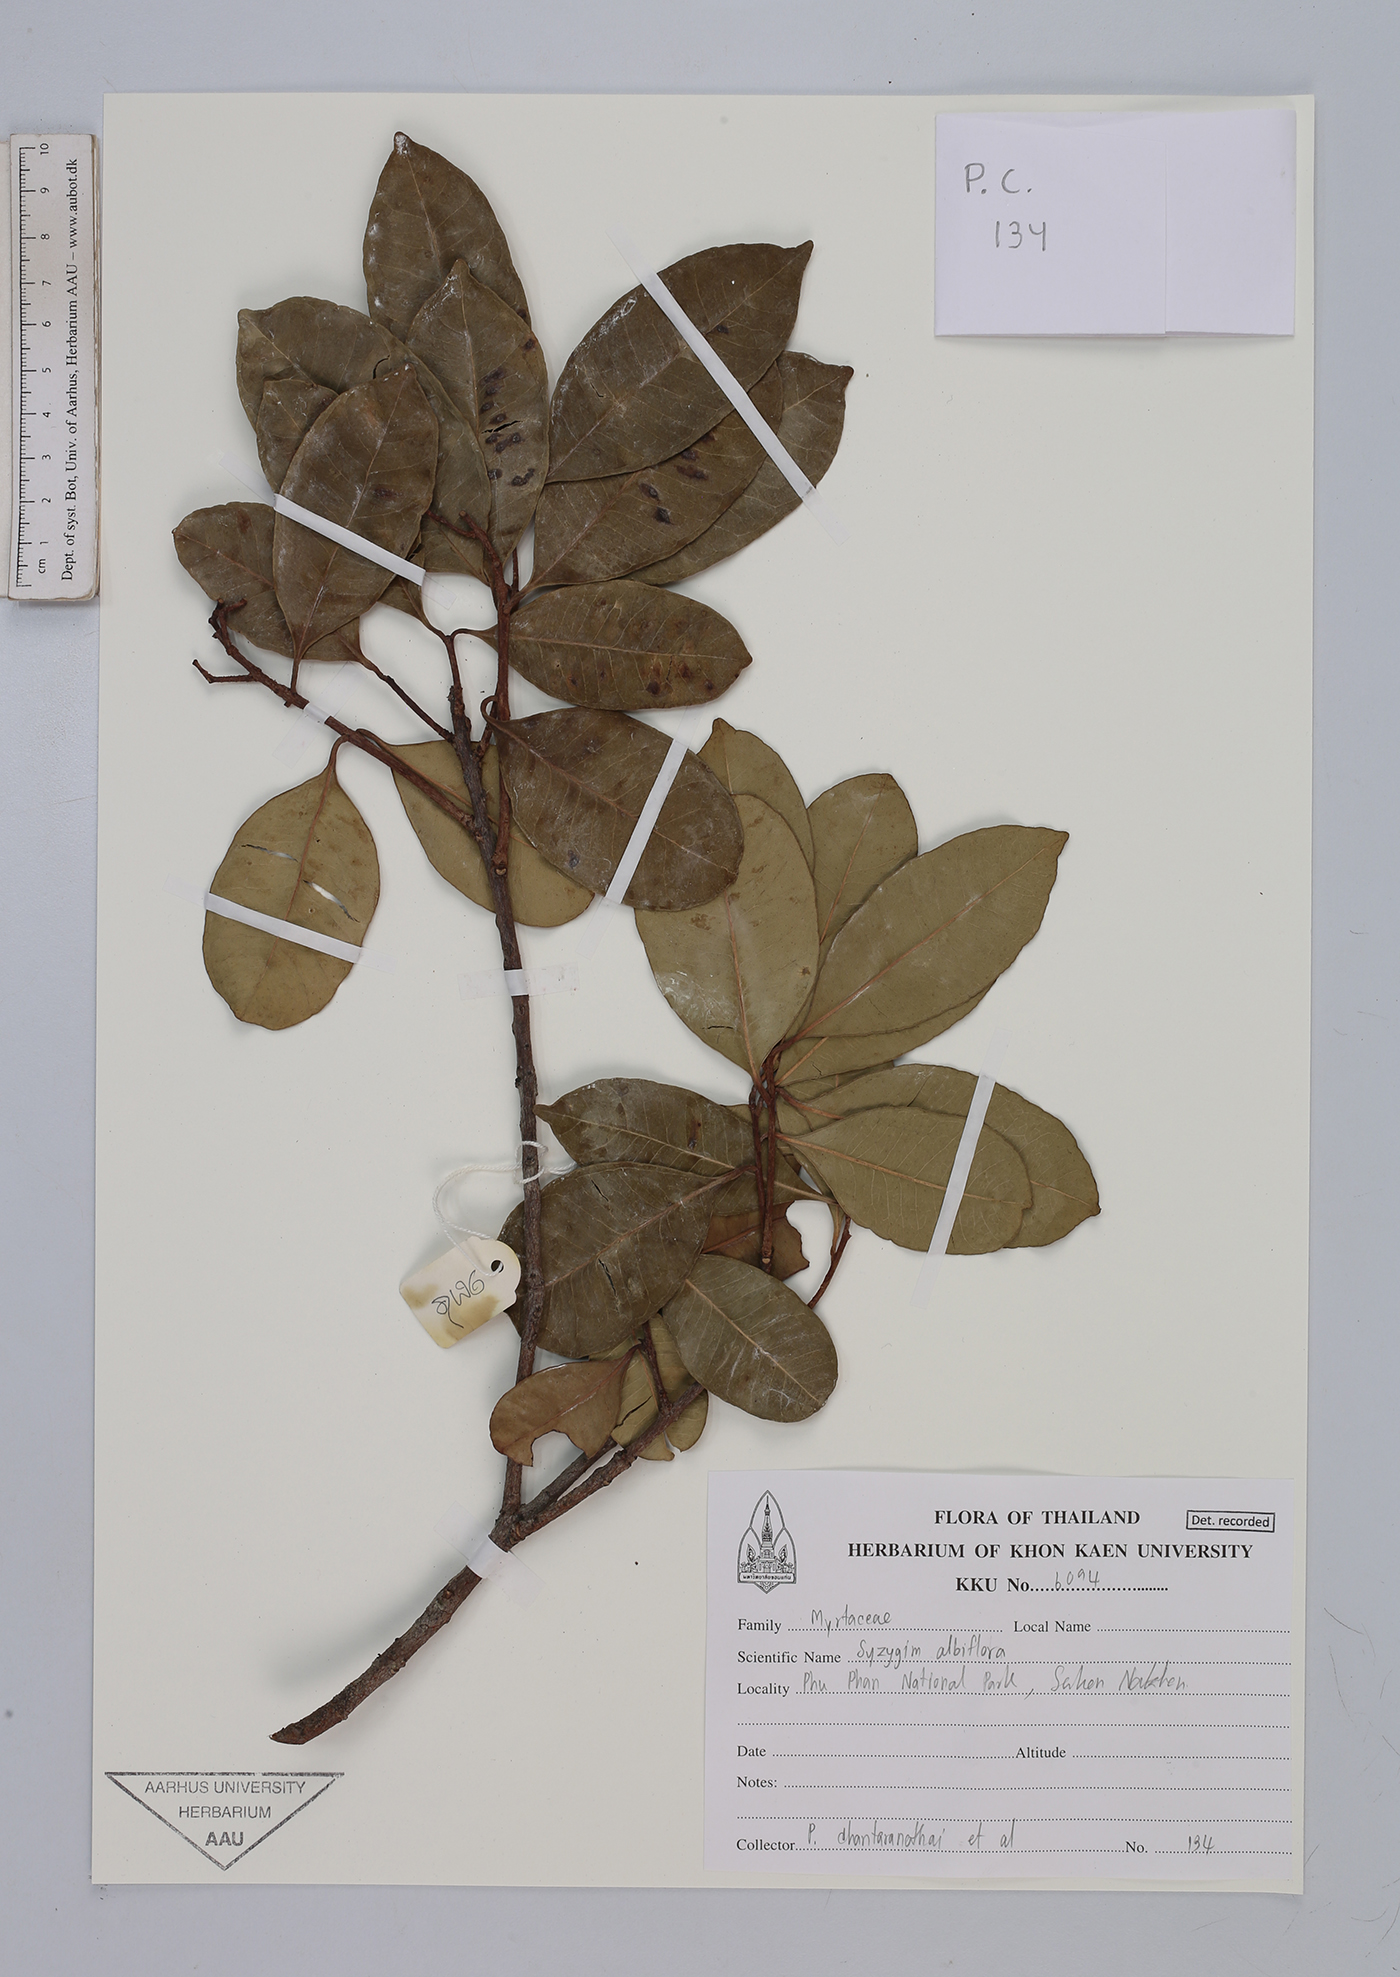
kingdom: Plantae
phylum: Tracheophyta
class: Magnoliopsida
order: Myrtales
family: Myrtaceae
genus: Syzygium
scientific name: Syzygium albiflorum
